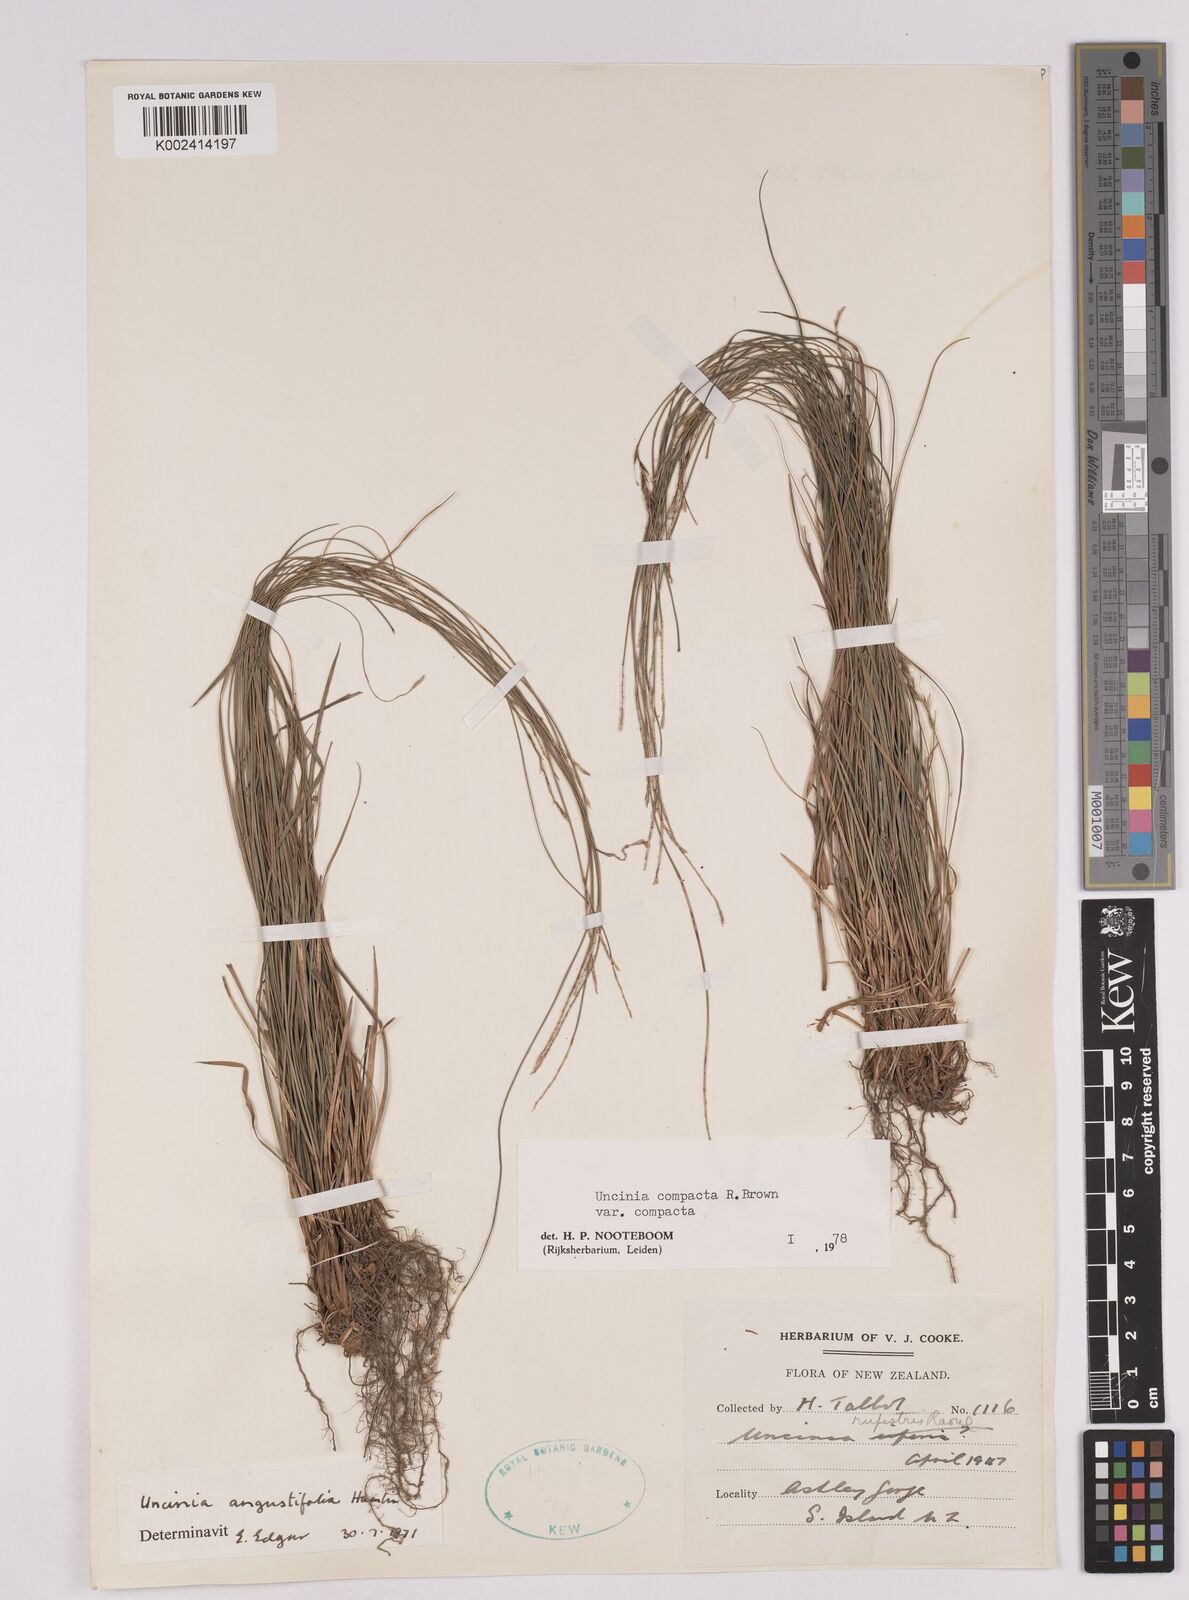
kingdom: Plantae
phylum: Tracheophyta
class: Liliopsida
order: Poales
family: Cyperaceae
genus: Carex
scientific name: Carex austrocompacta
